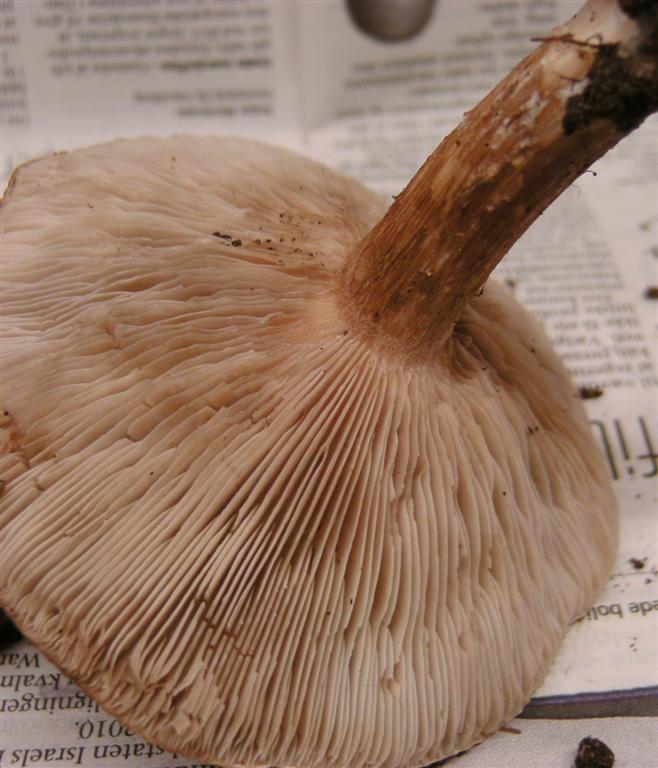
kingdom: Fungi
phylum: Basidiomycota
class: Agaricomycetes
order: Agaricales
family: Tricholomataceae
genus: Lepista
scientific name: Lepista irina
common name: violduftende hekseringshat
